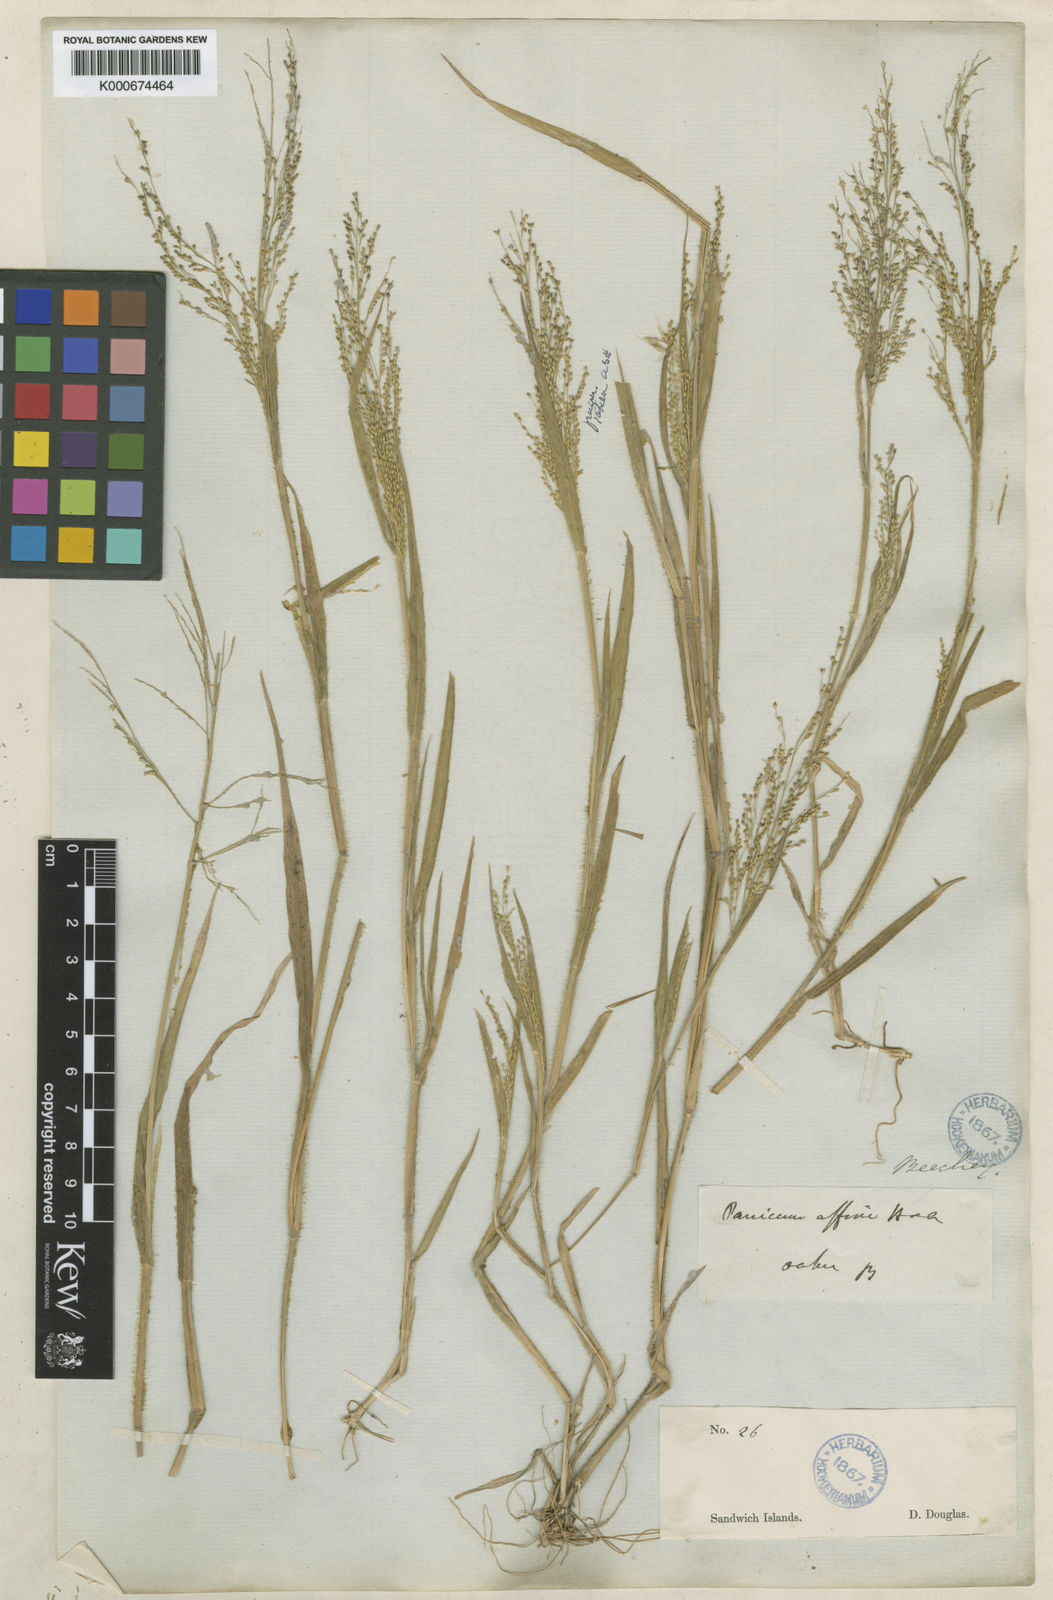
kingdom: Plantae
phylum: Tracheophyta
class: Liliopsida
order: Poales
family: Poaceae
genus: Panicum
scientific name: Panicum pellitum
